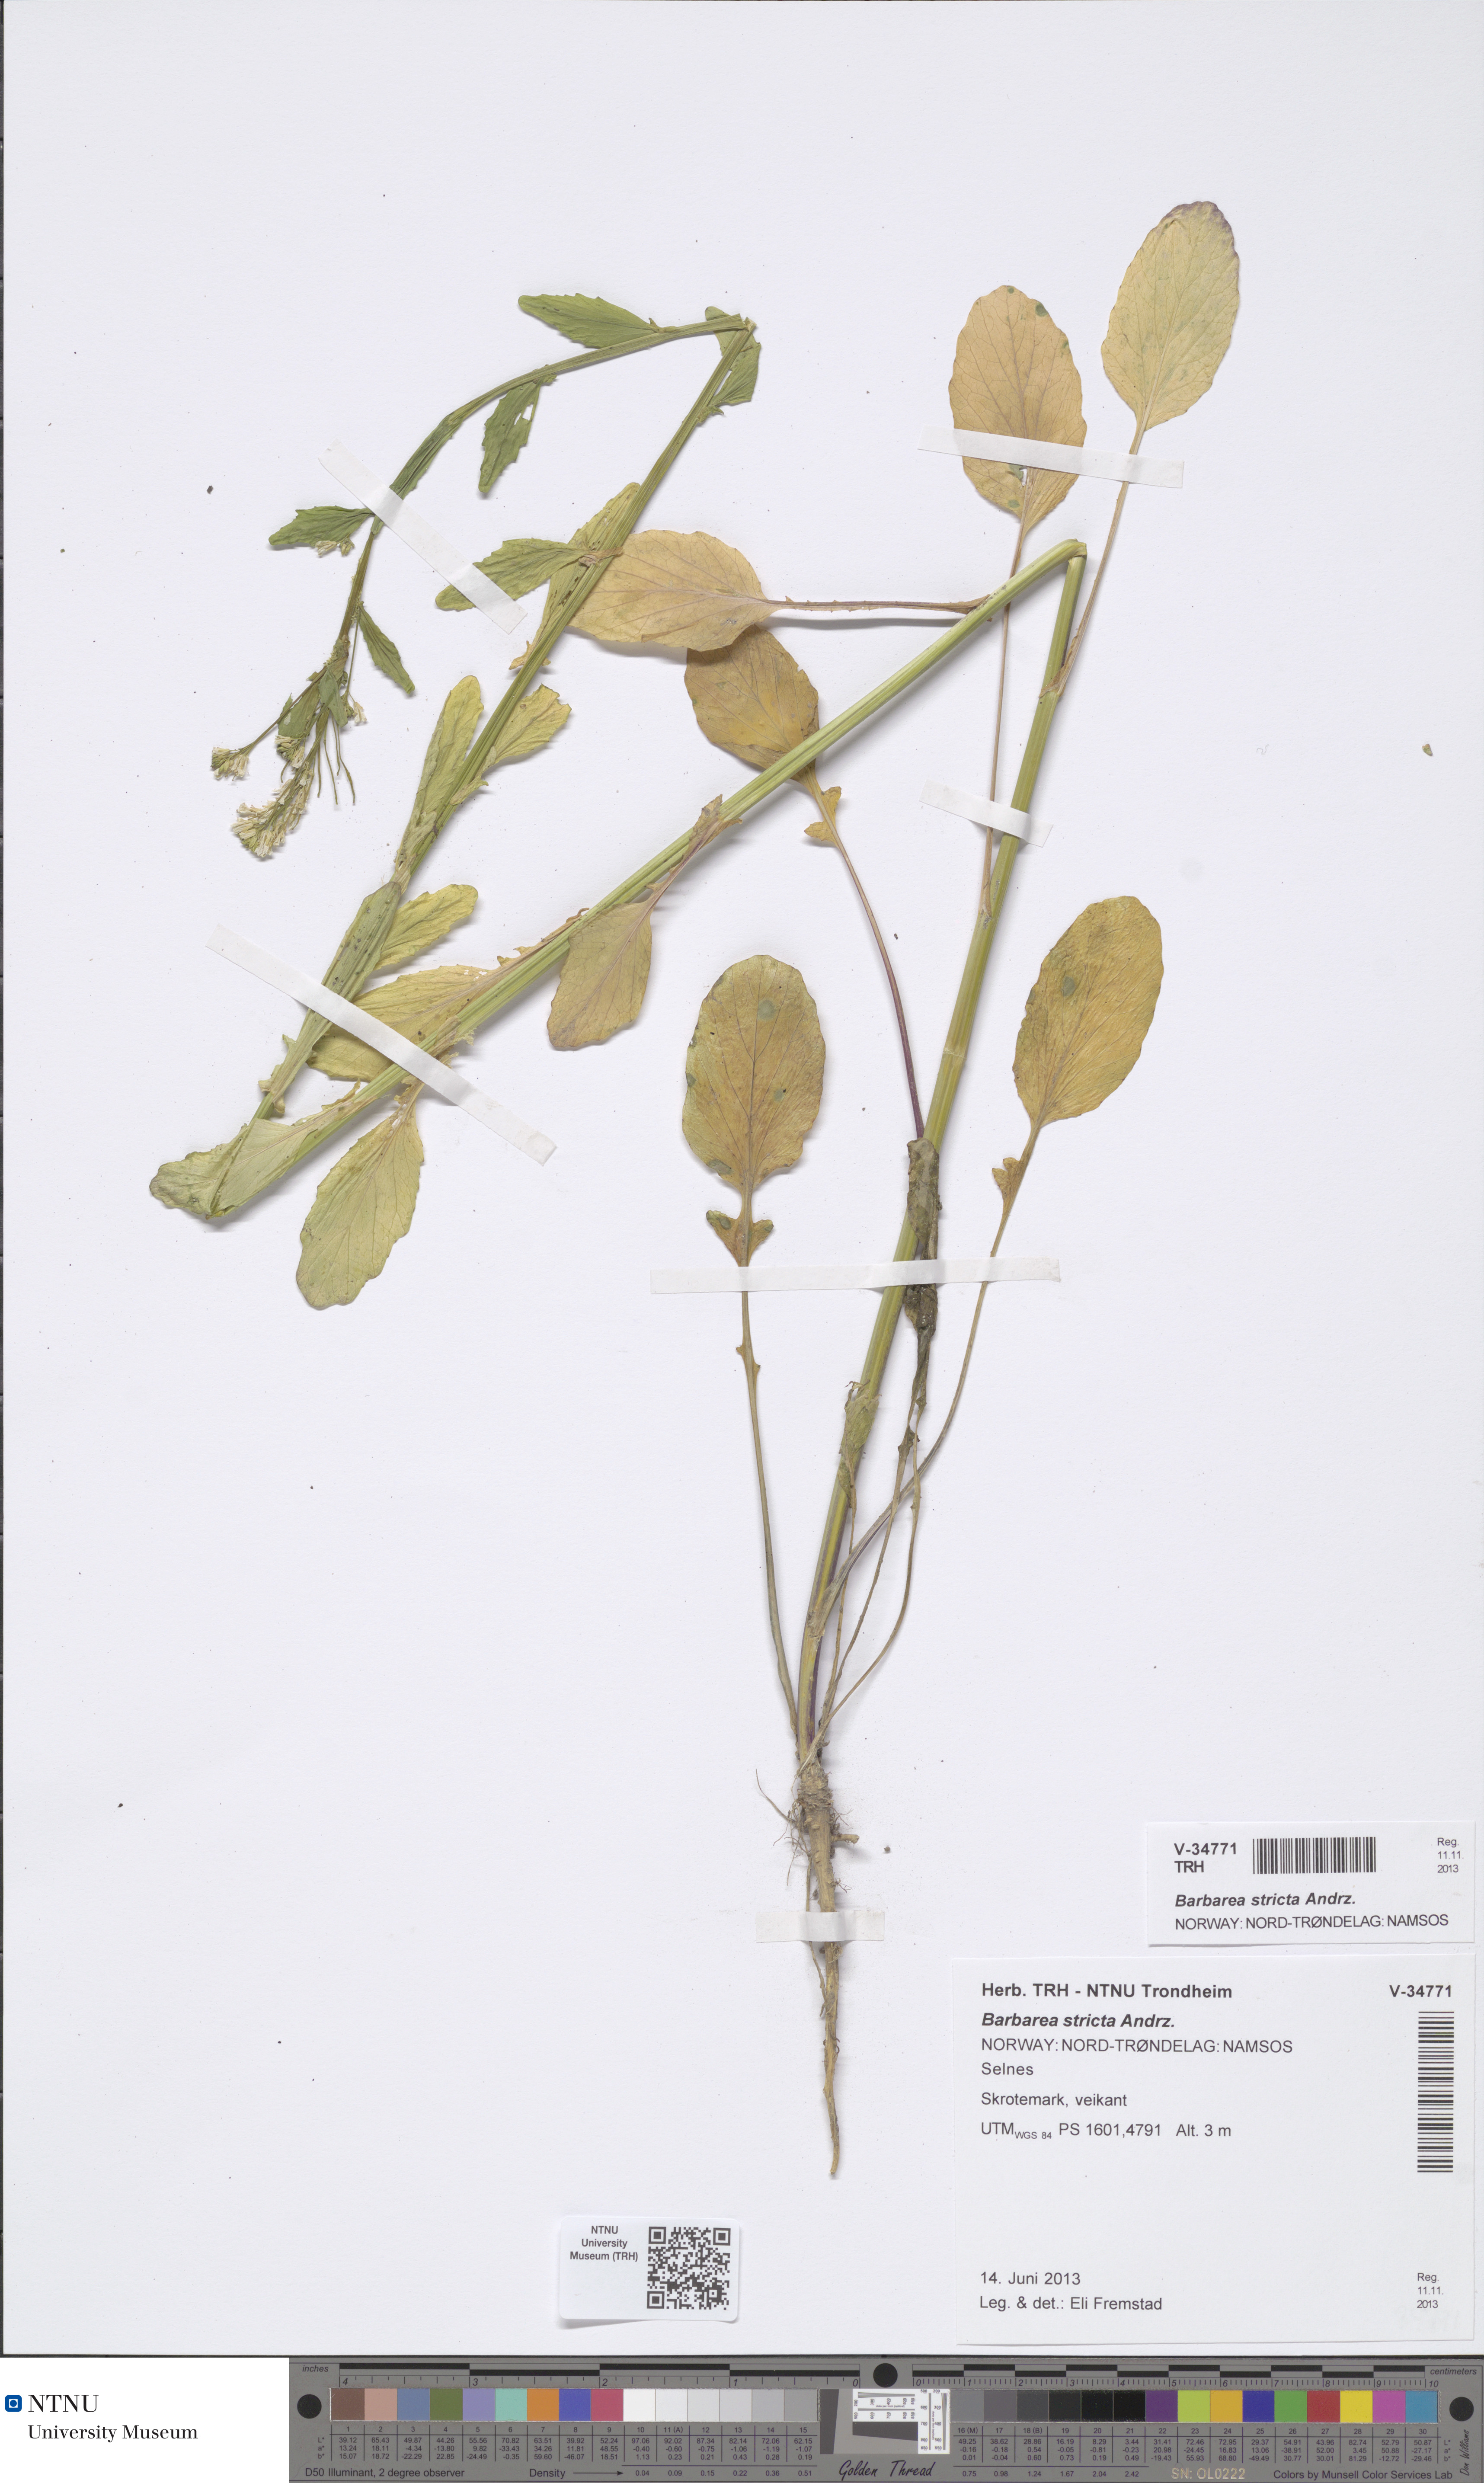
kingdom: Plantae
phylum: Tracheophyta
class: Magnoliopsida
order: Brassicales
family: Brassicaceae
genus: Barbarea
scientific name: Barbarea stricta
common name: Small-flowered winter-cress
